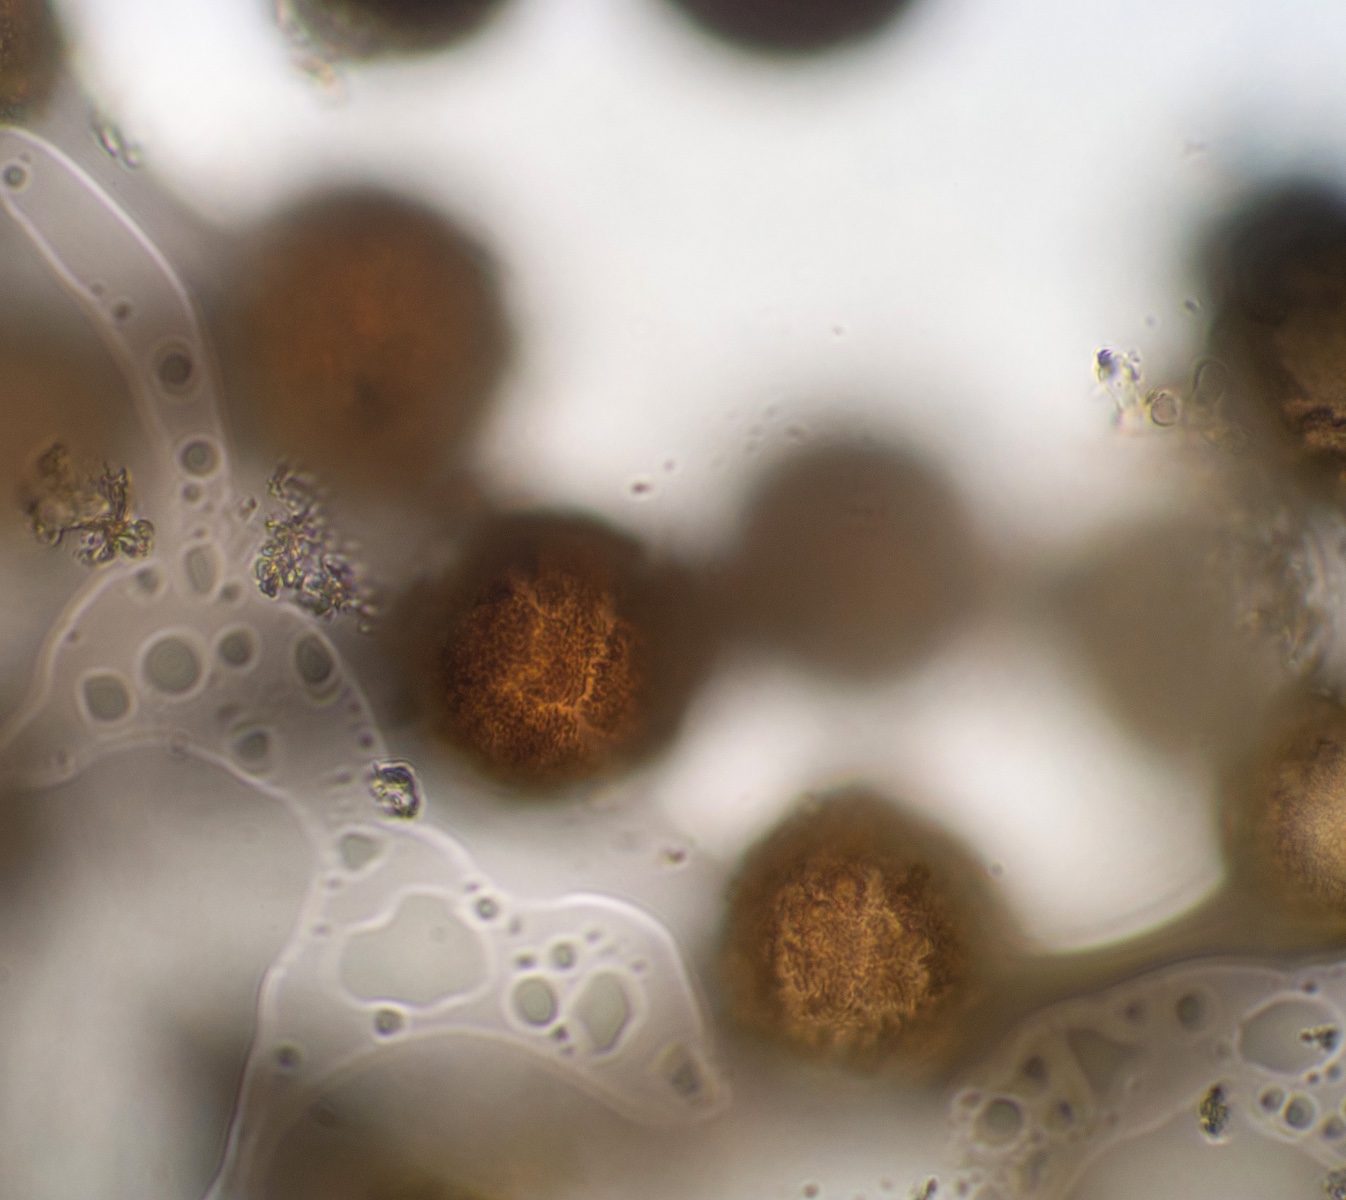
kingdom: Fungi
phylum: Ascomycota
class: Eurotiomycetes
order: Eurotiales
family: Elaphomycetaceae
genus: Elaphomyces
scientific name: Elaphomyces maculatus
